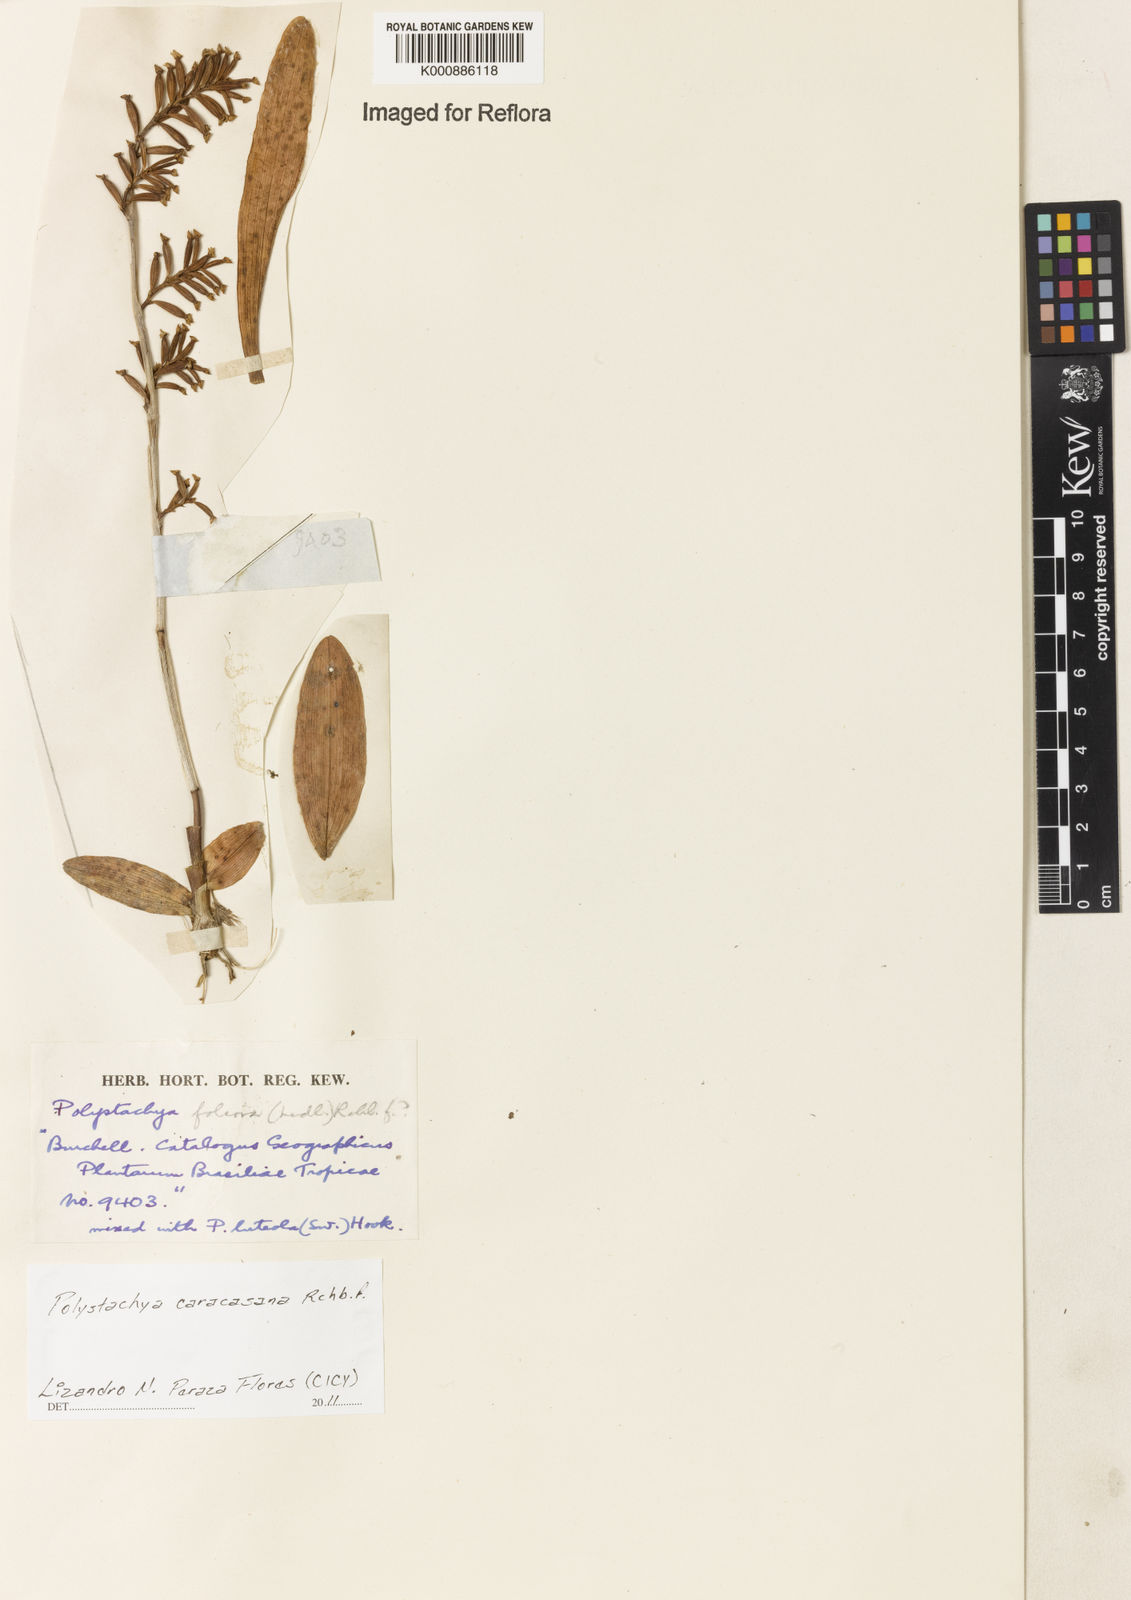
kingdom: Plantae
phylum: Tracheophyta
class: Liliopsida
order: Asparagales
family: Orchidaceae
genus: Polystachya
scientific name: Polystachya foliosa
